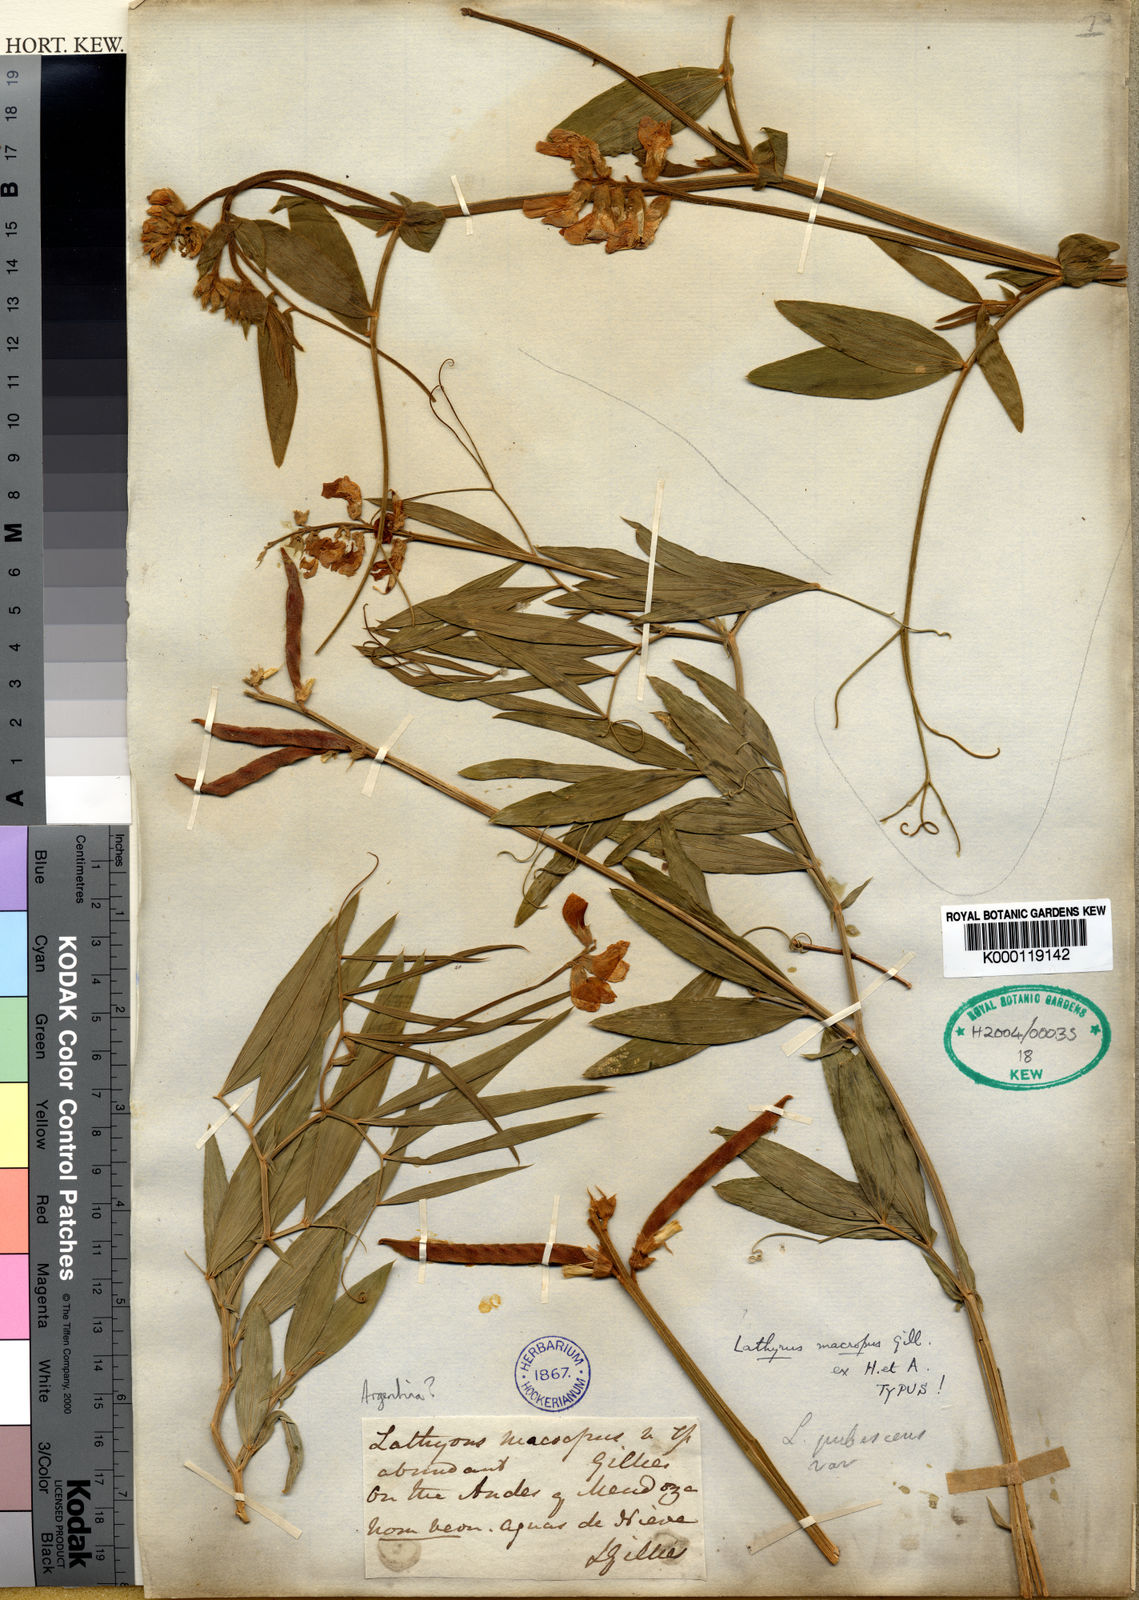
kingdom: Plantae
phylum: Tracheophyta
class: Magnoliopsida
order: Fabales
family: Fabaceae
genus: Lathyrus
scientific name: Lathyrus
